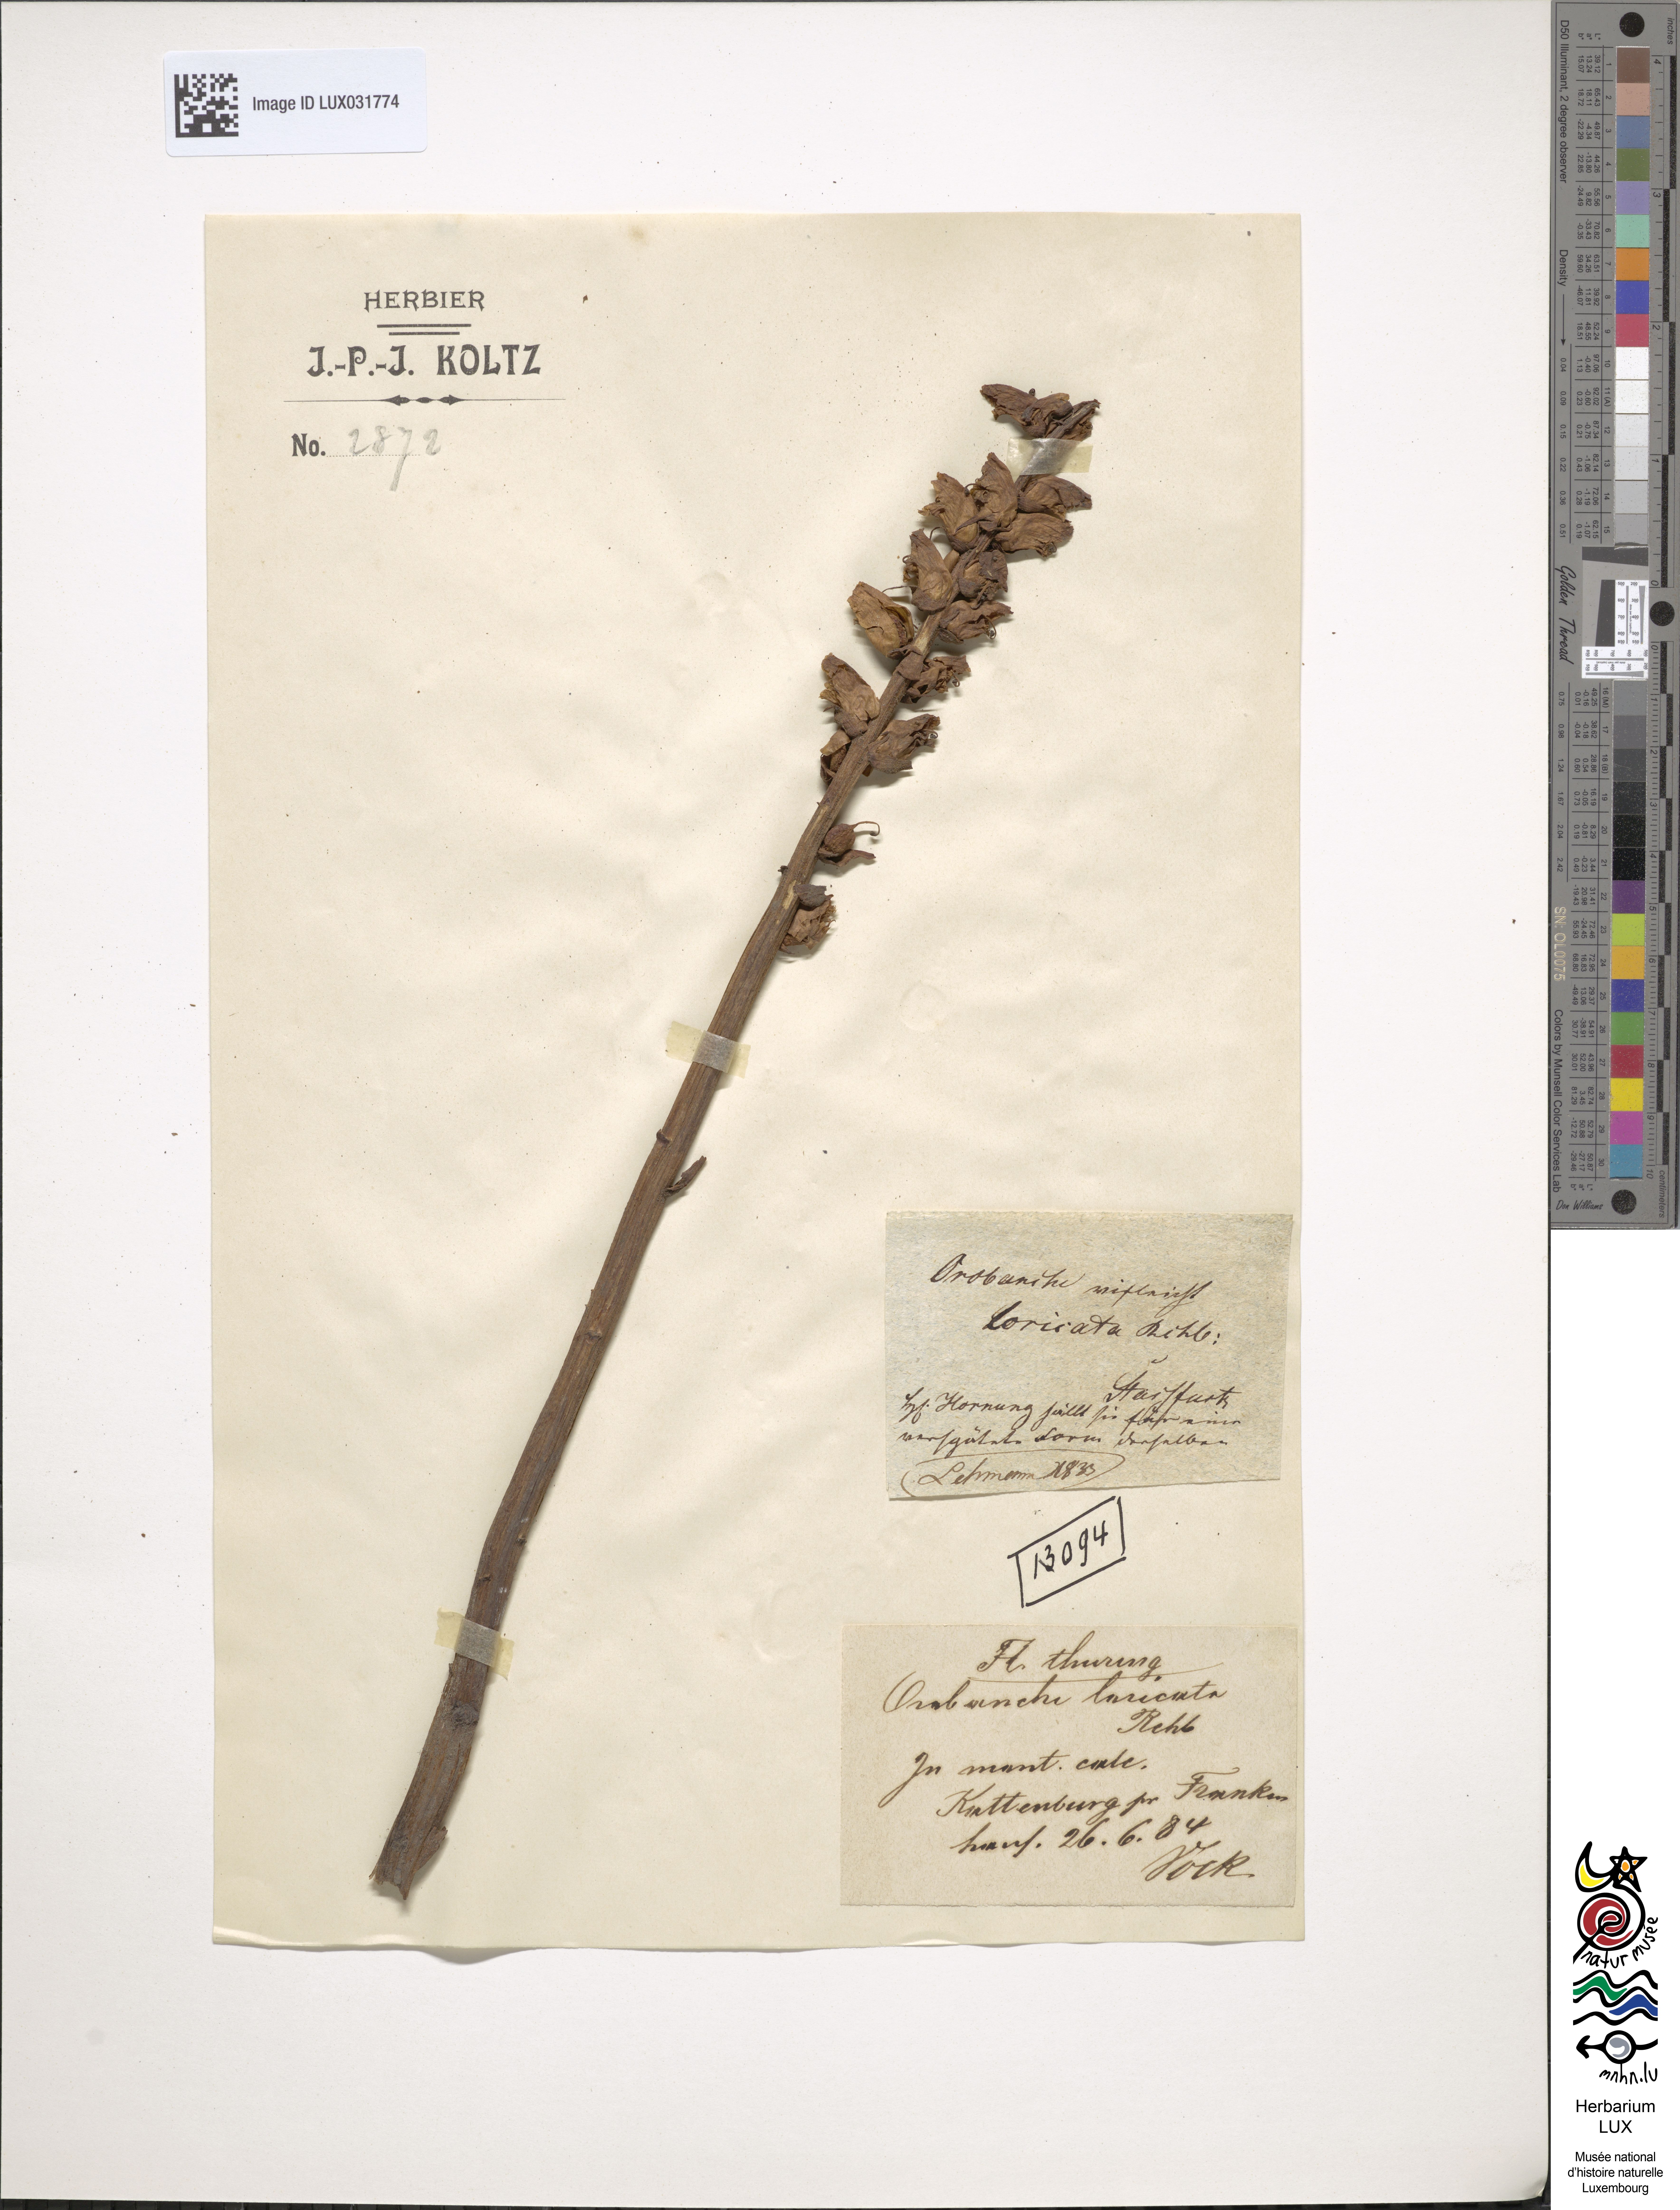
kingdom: Plantae
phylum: Tracheophyta
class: Magnoliopsida
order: Lamiales
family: Orobanchaceae
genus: Orobanche
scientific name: Orobanche artemisiae-campestris
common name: Oxtongue broomrape
